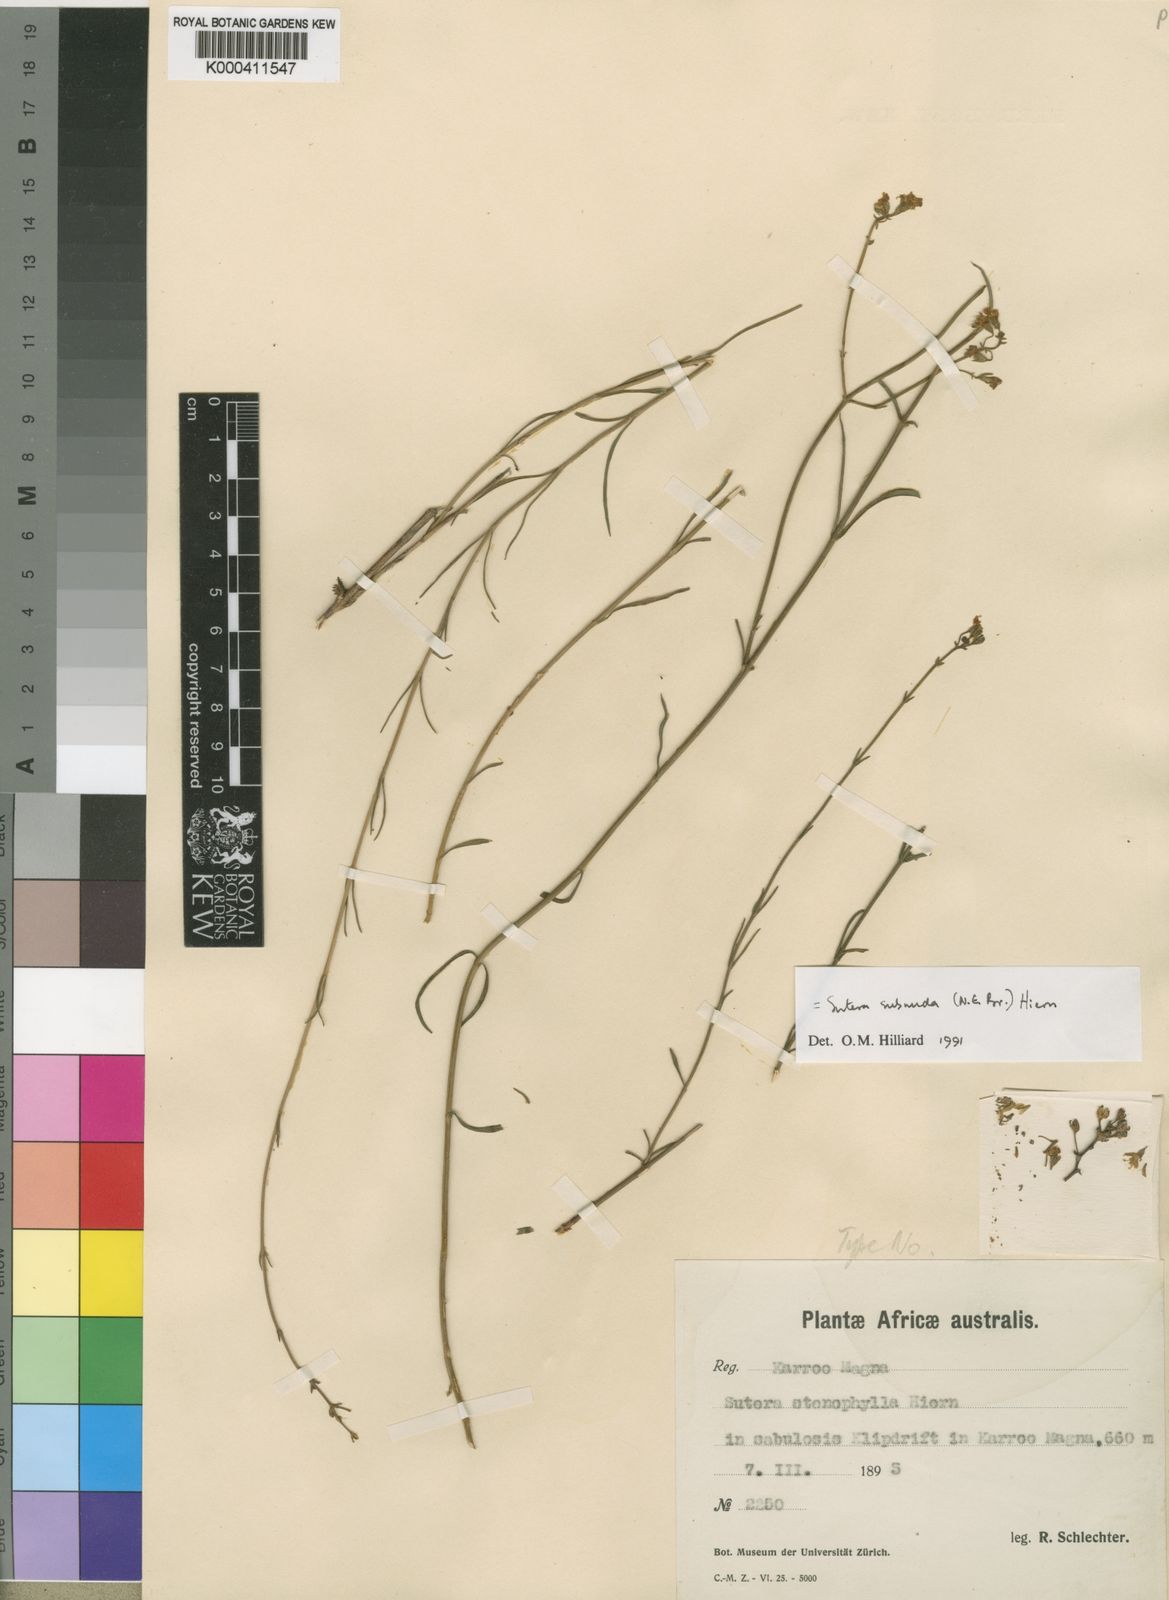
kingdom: Plantae
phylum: Tracheophyta
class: Magnoliopsida
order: Lamiales
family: Scrophulariaceae
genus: Chaenostoma
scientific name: Chaenostoma subnudum
